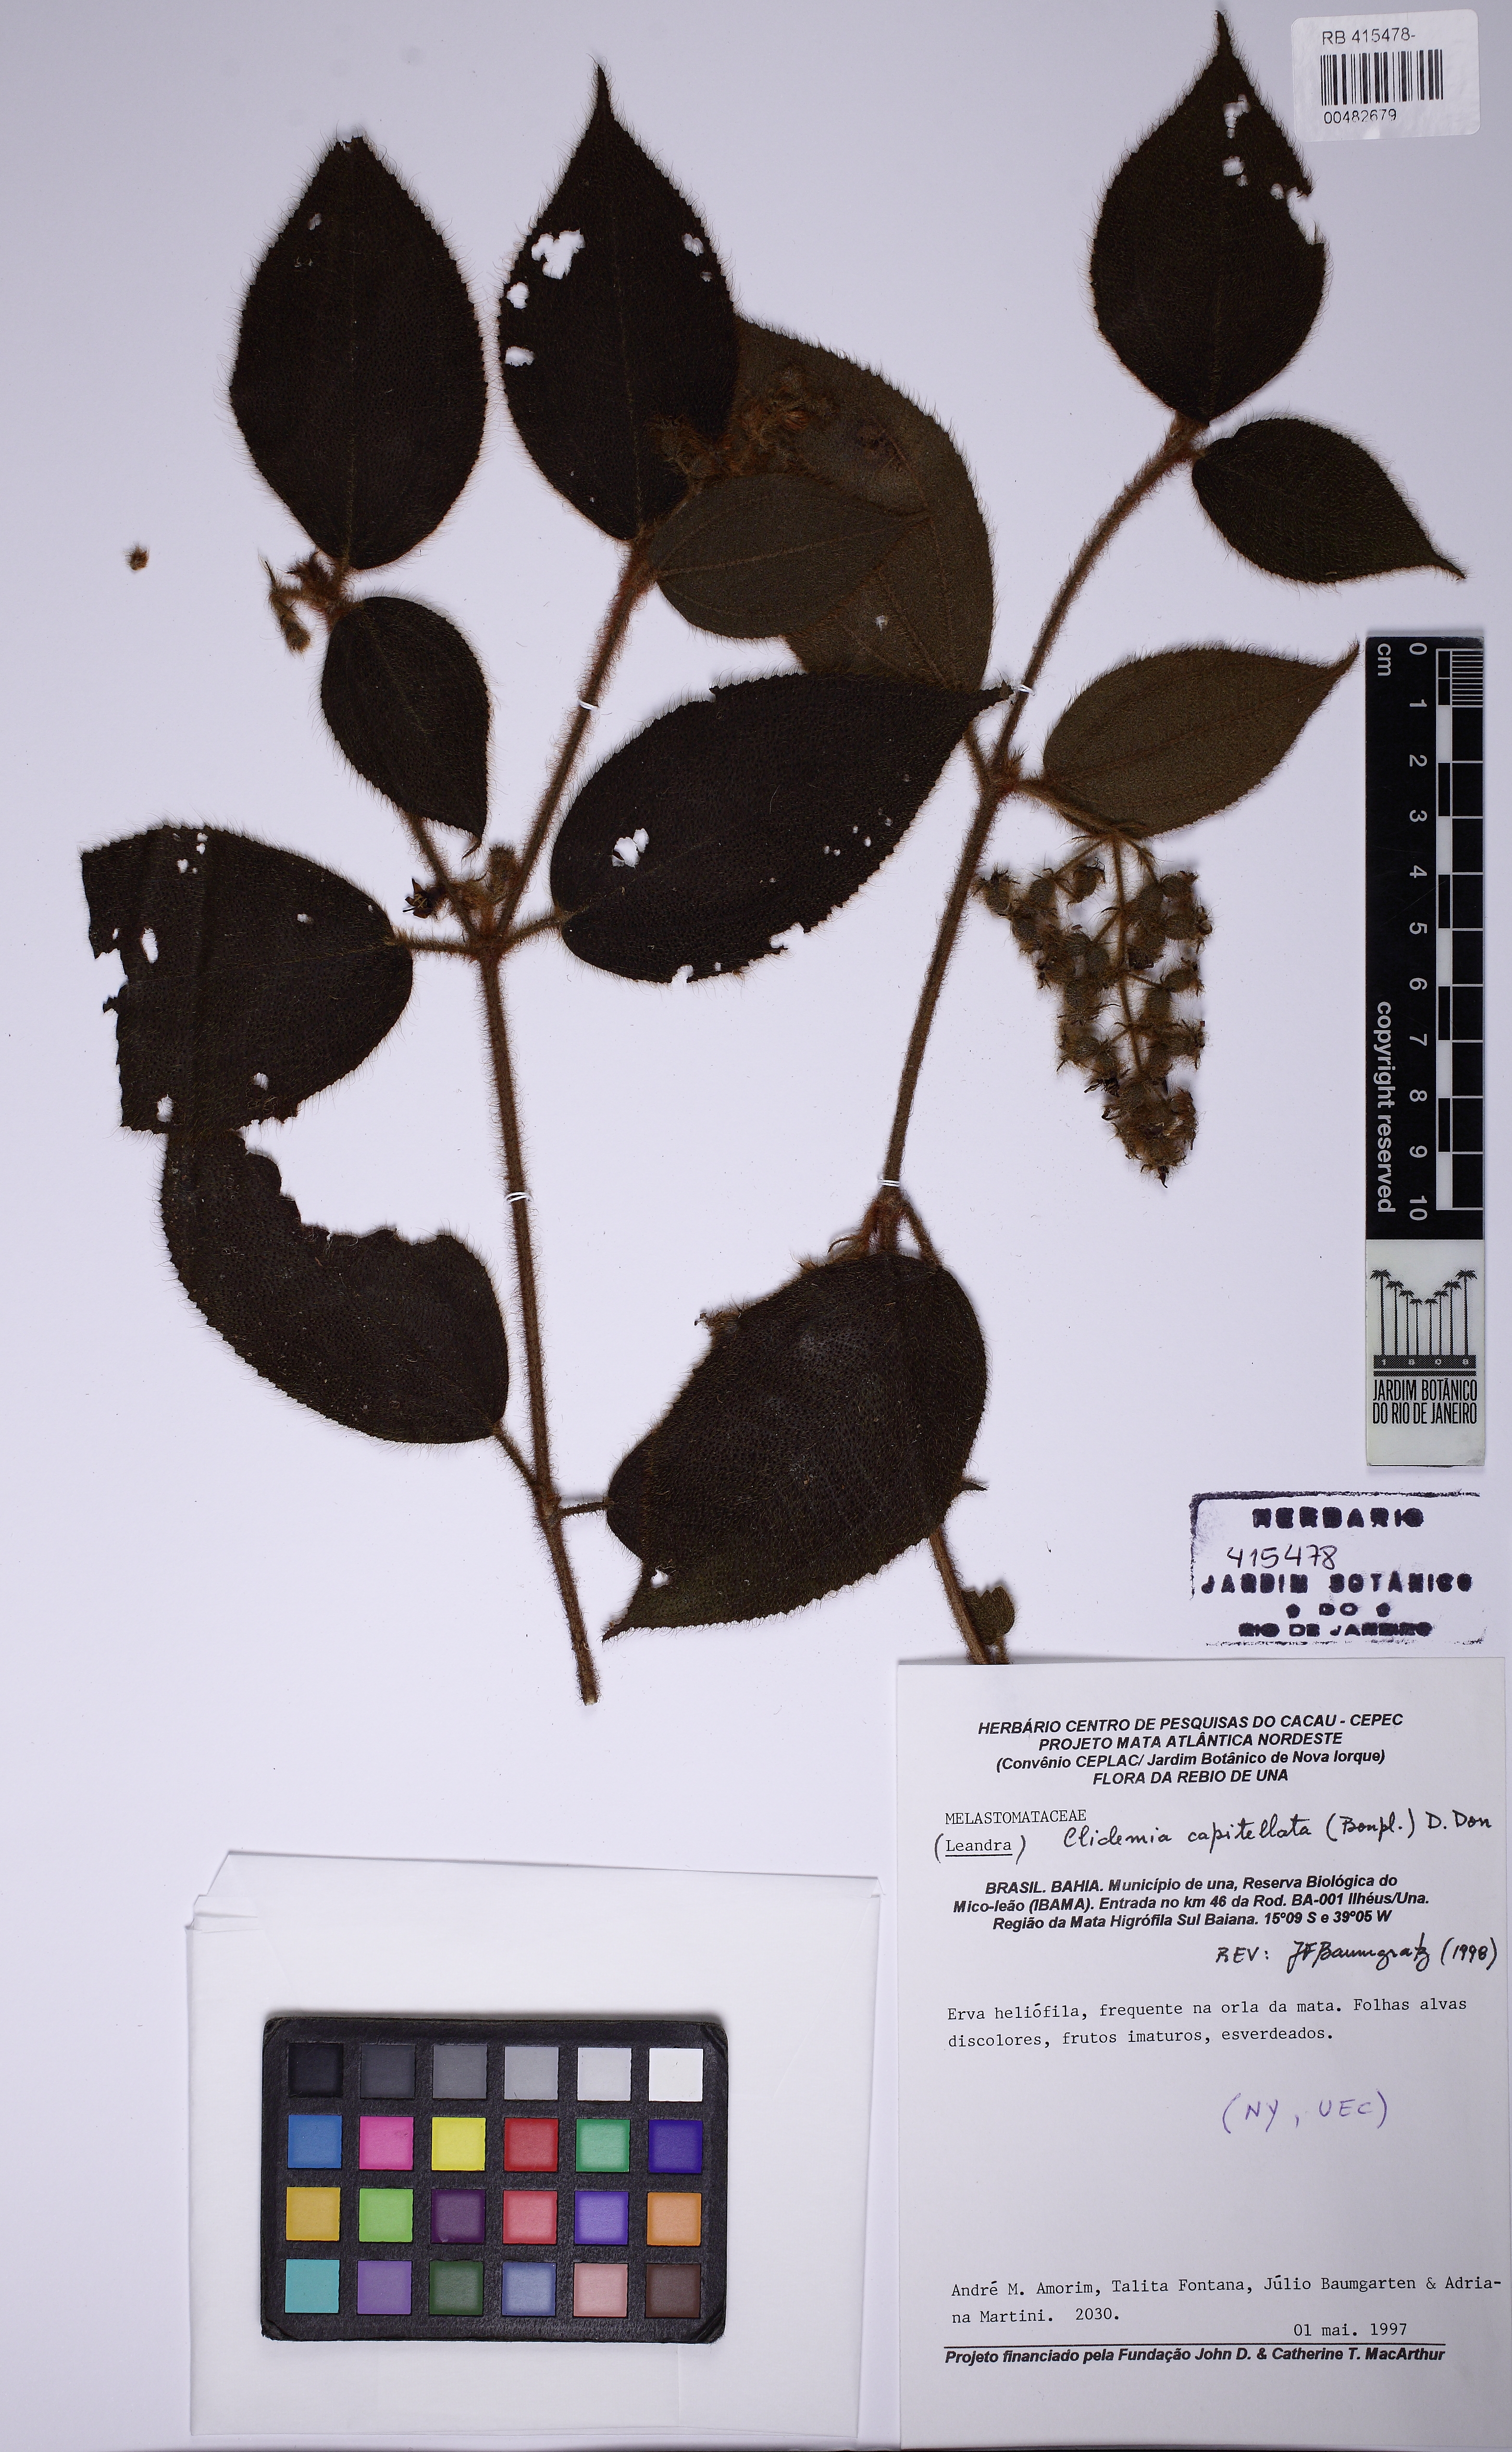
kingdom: Plantae
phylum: Tracheophyta
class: Magnoliopsida
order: Myrtales
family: Melastomataceae
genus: Miconia
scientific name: Miconia dependens
